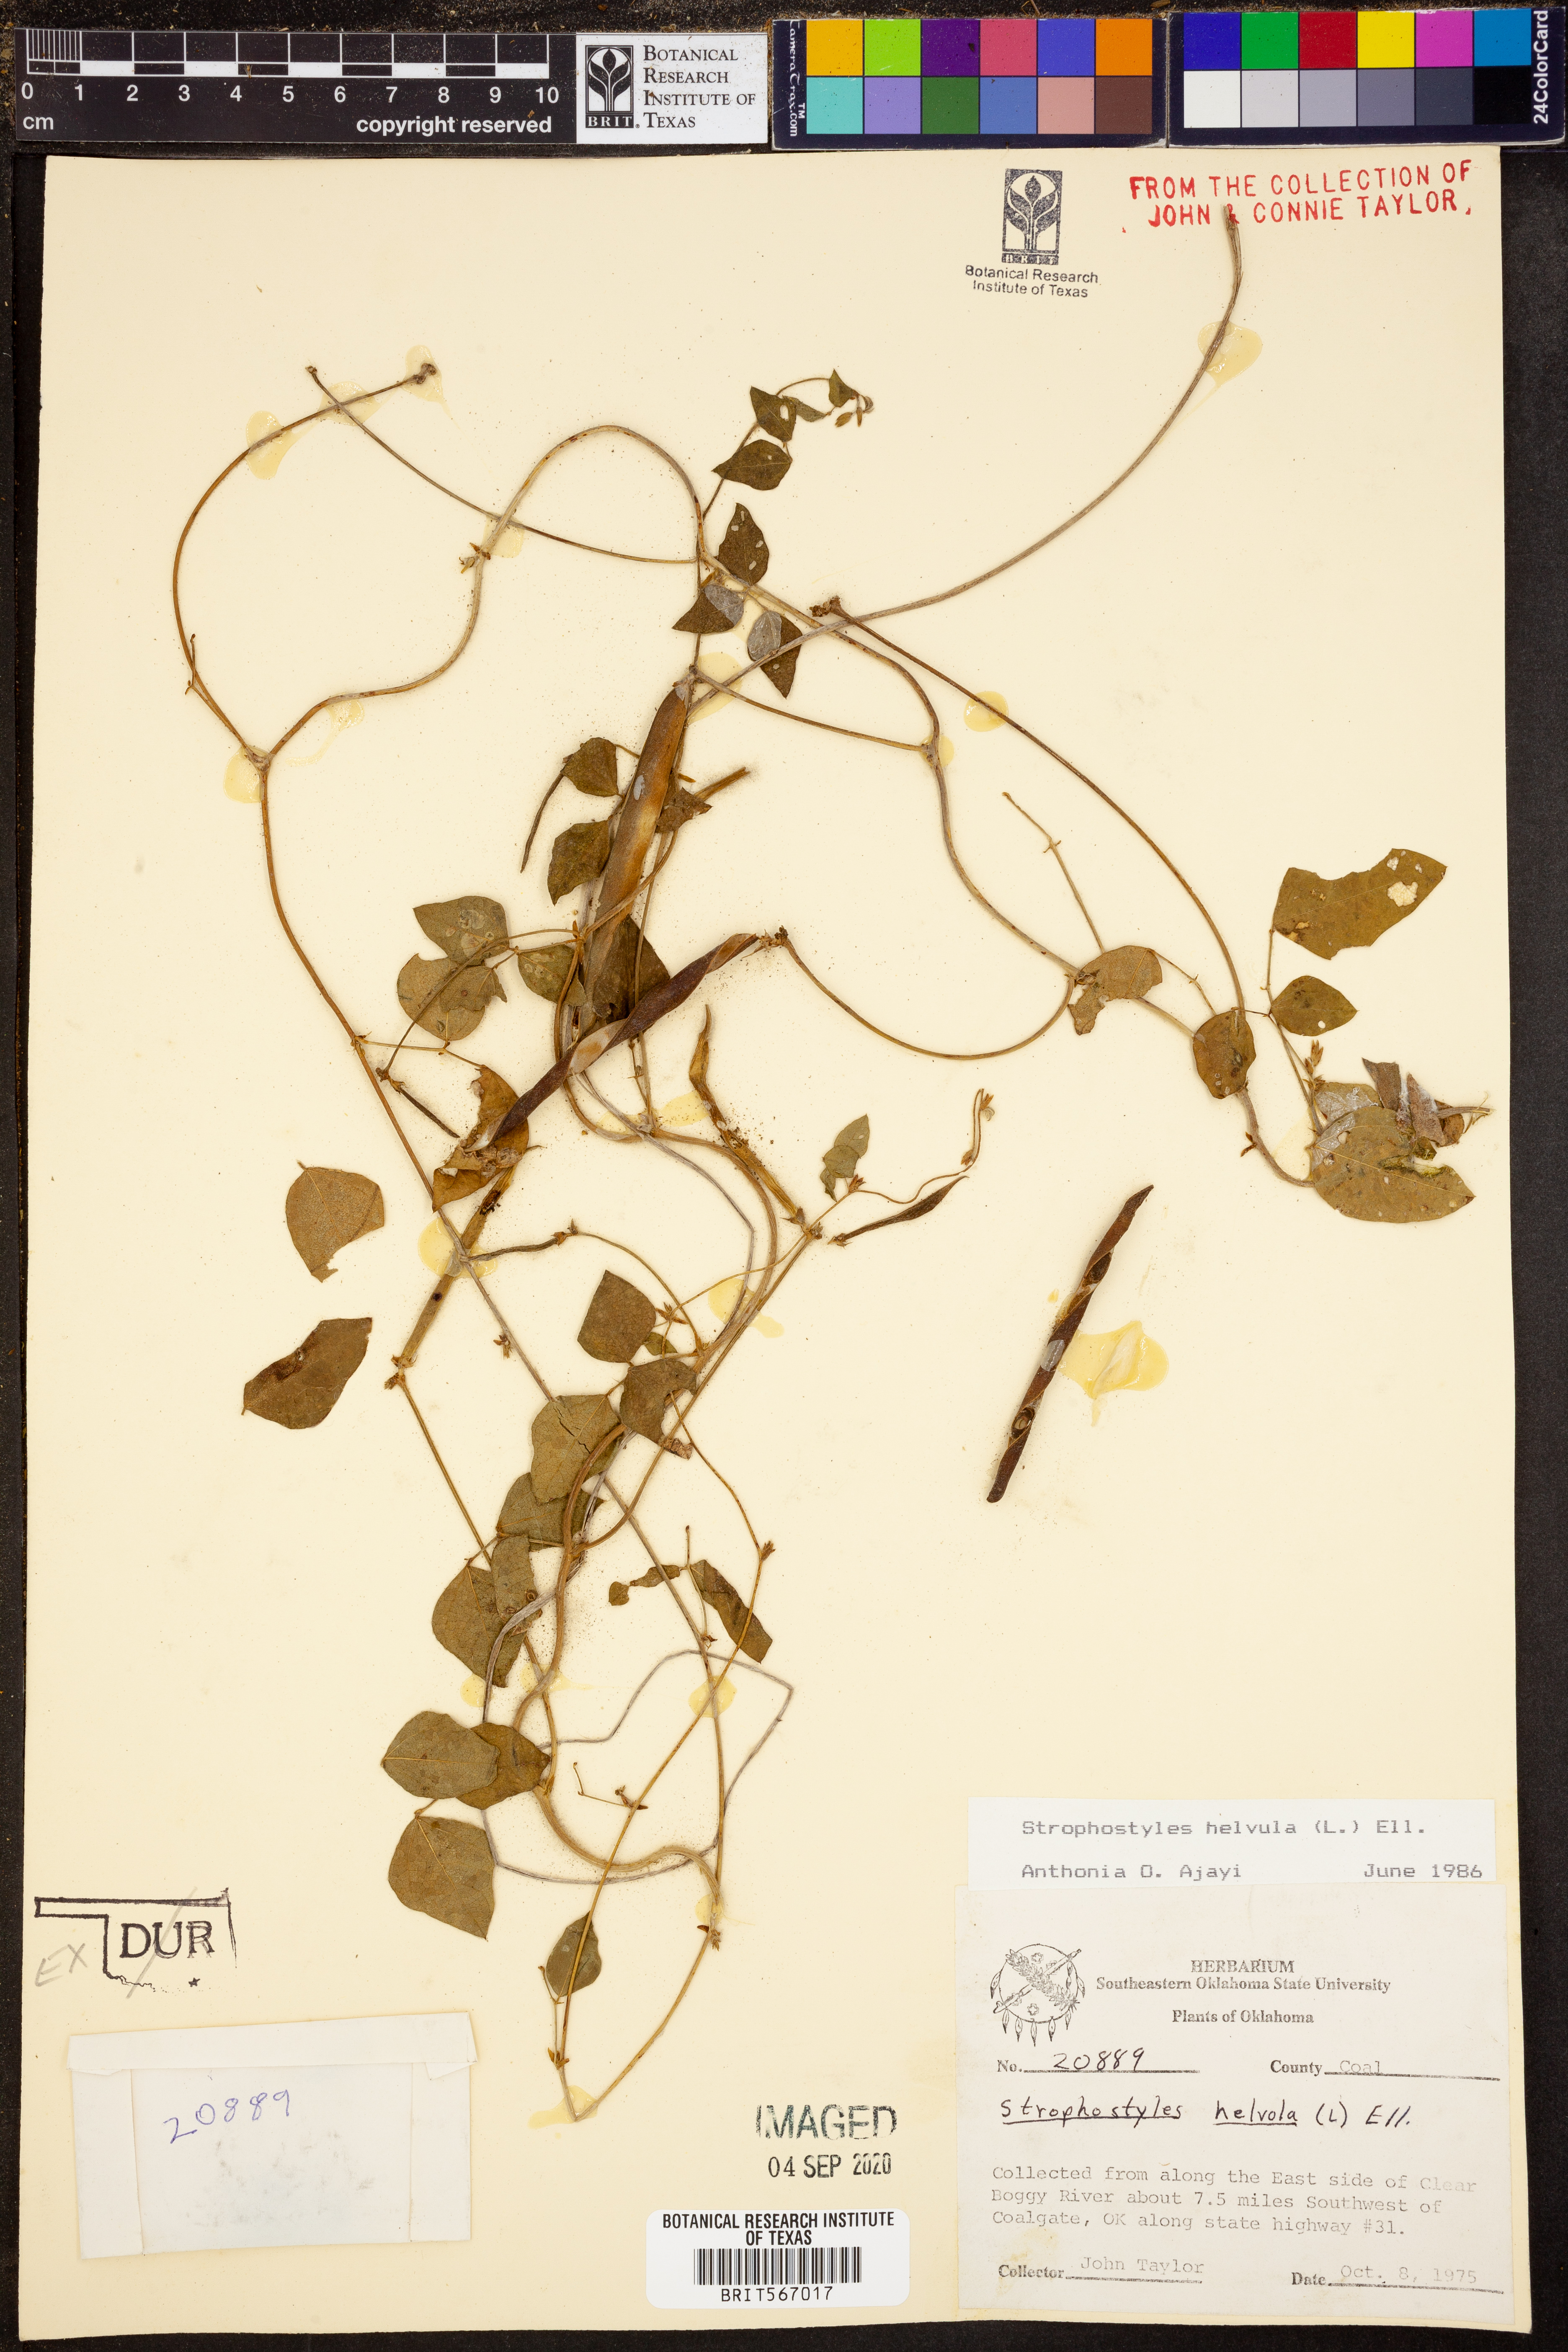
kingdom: Plantae
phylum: Tracheophyta
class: Magnoliopsida
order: Fabales
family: Fabaceae
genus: Strophostyles
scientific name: Strophostyles helvula
